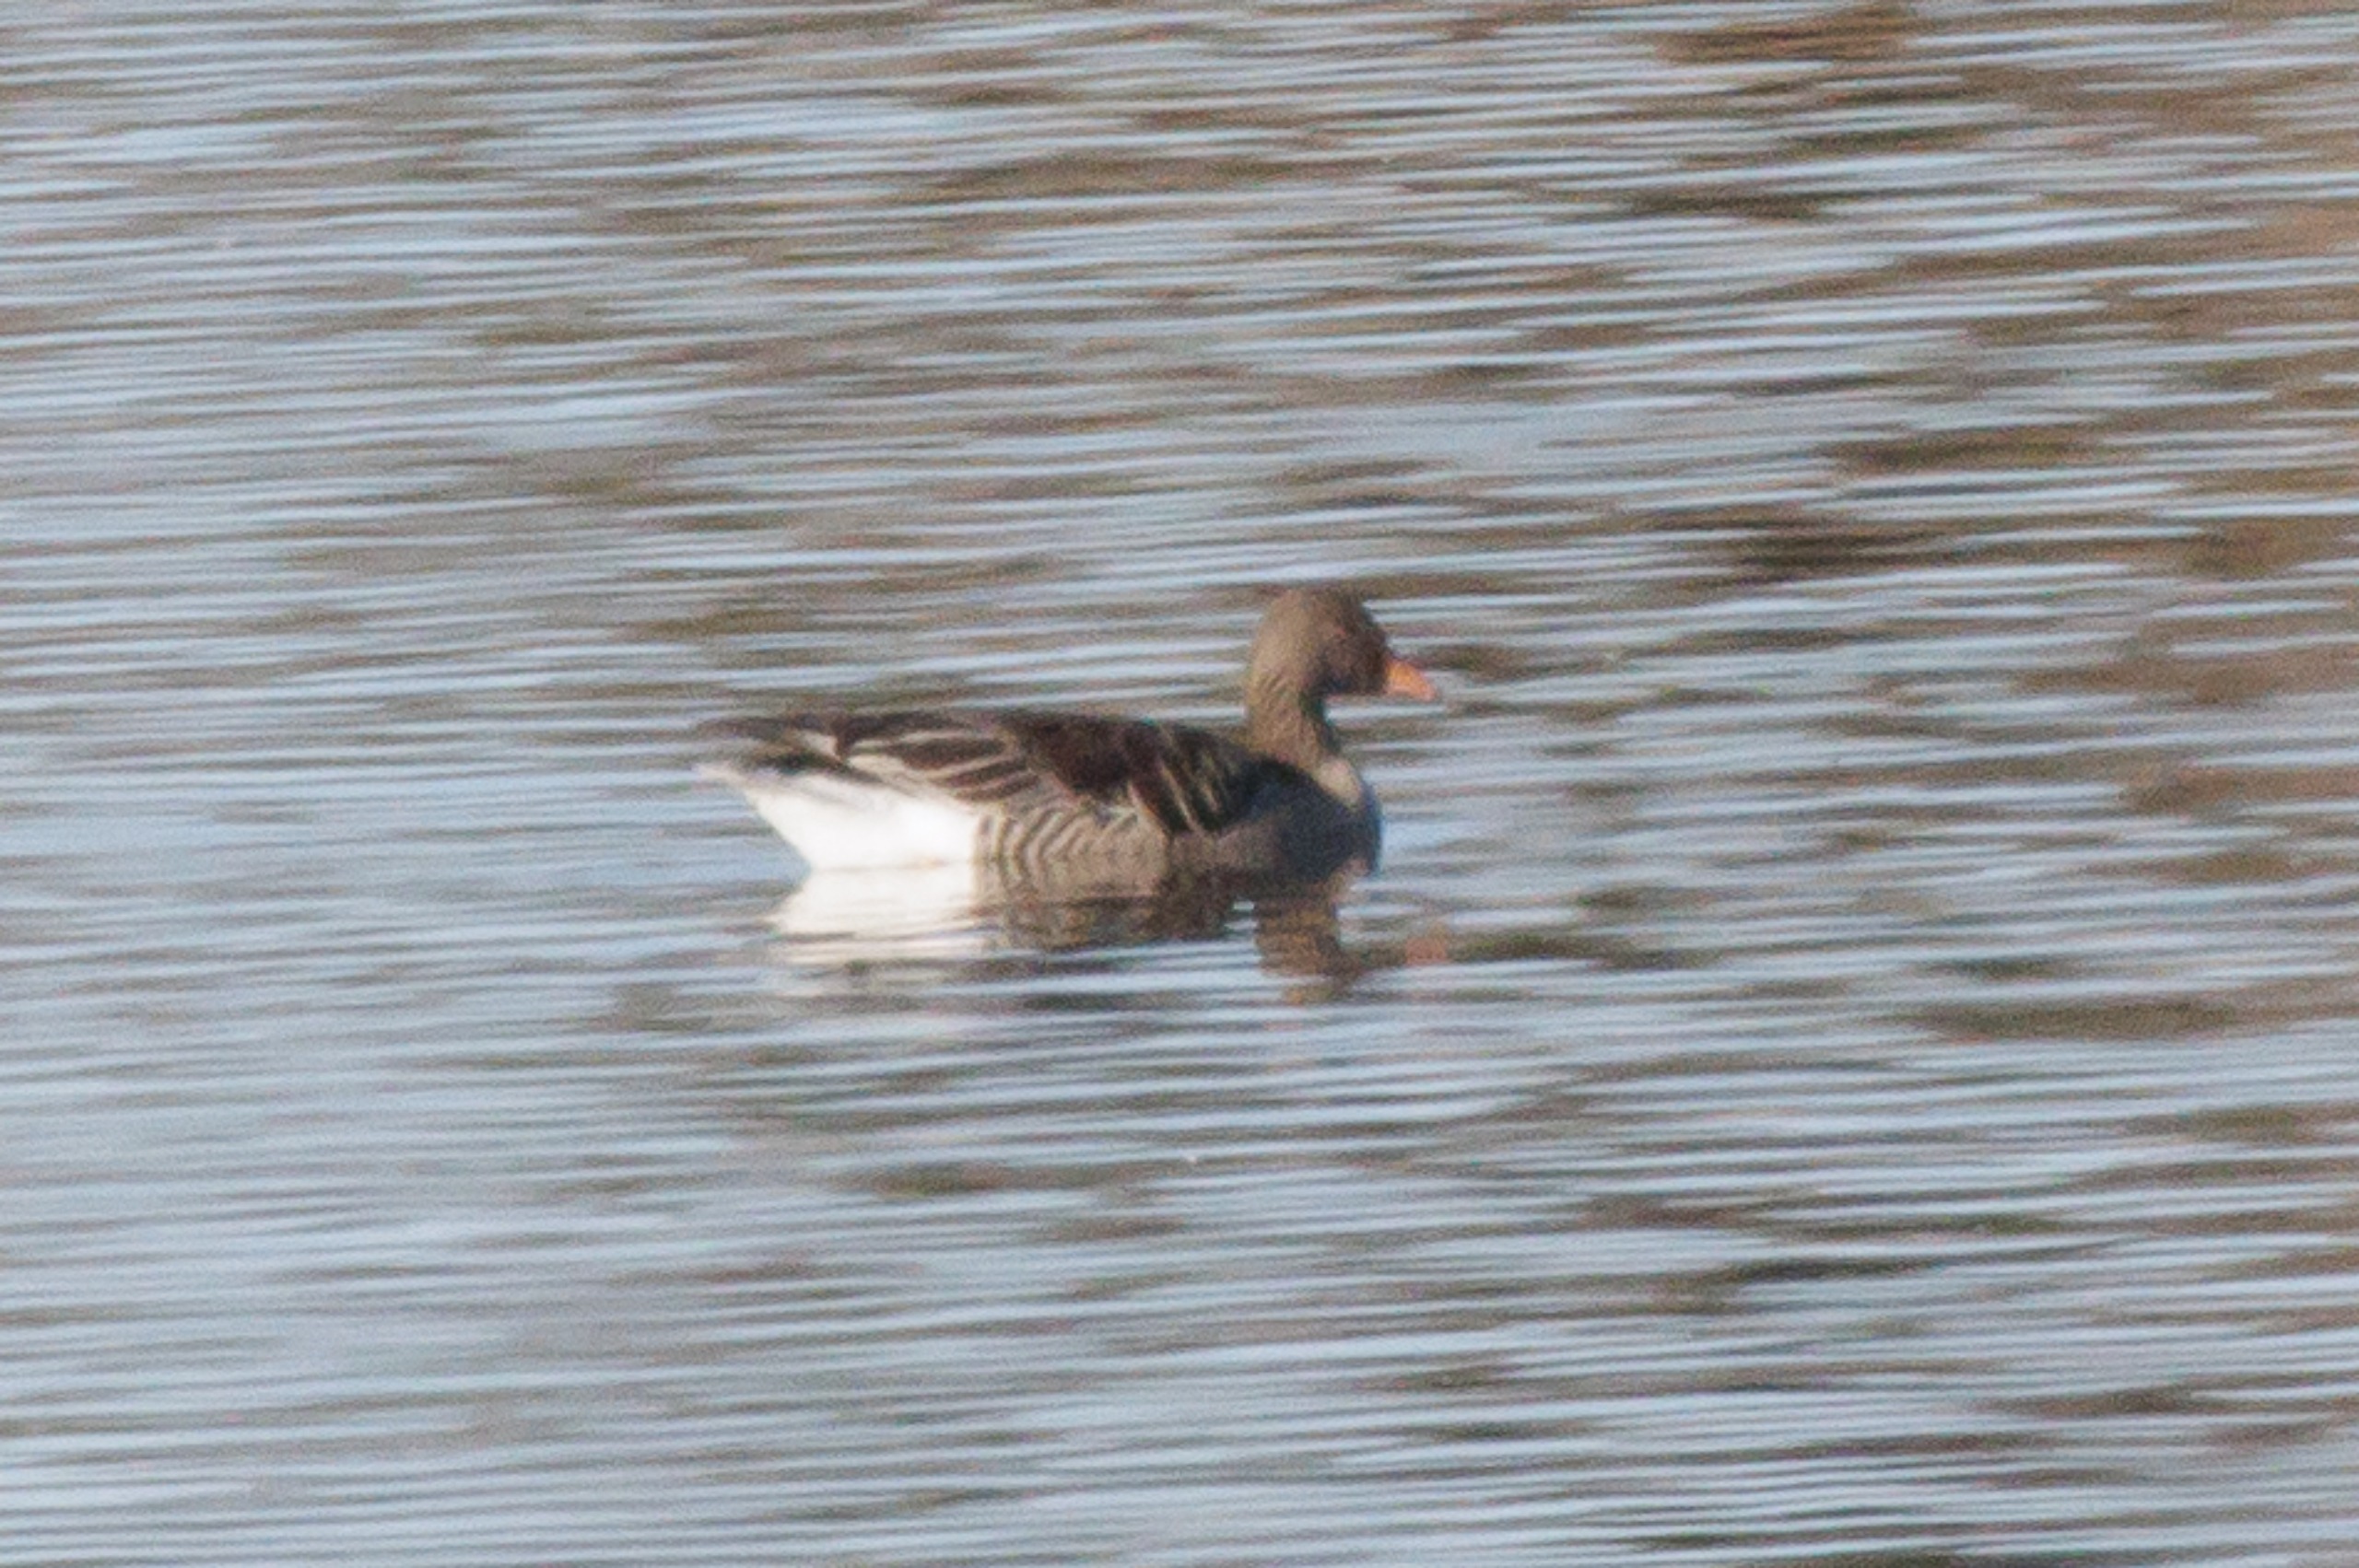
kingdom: Animalia
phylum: Chordata
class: Aves
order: Anseriformes
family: Anatidae
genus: Anser
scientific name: Anser anser
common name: Grågås
